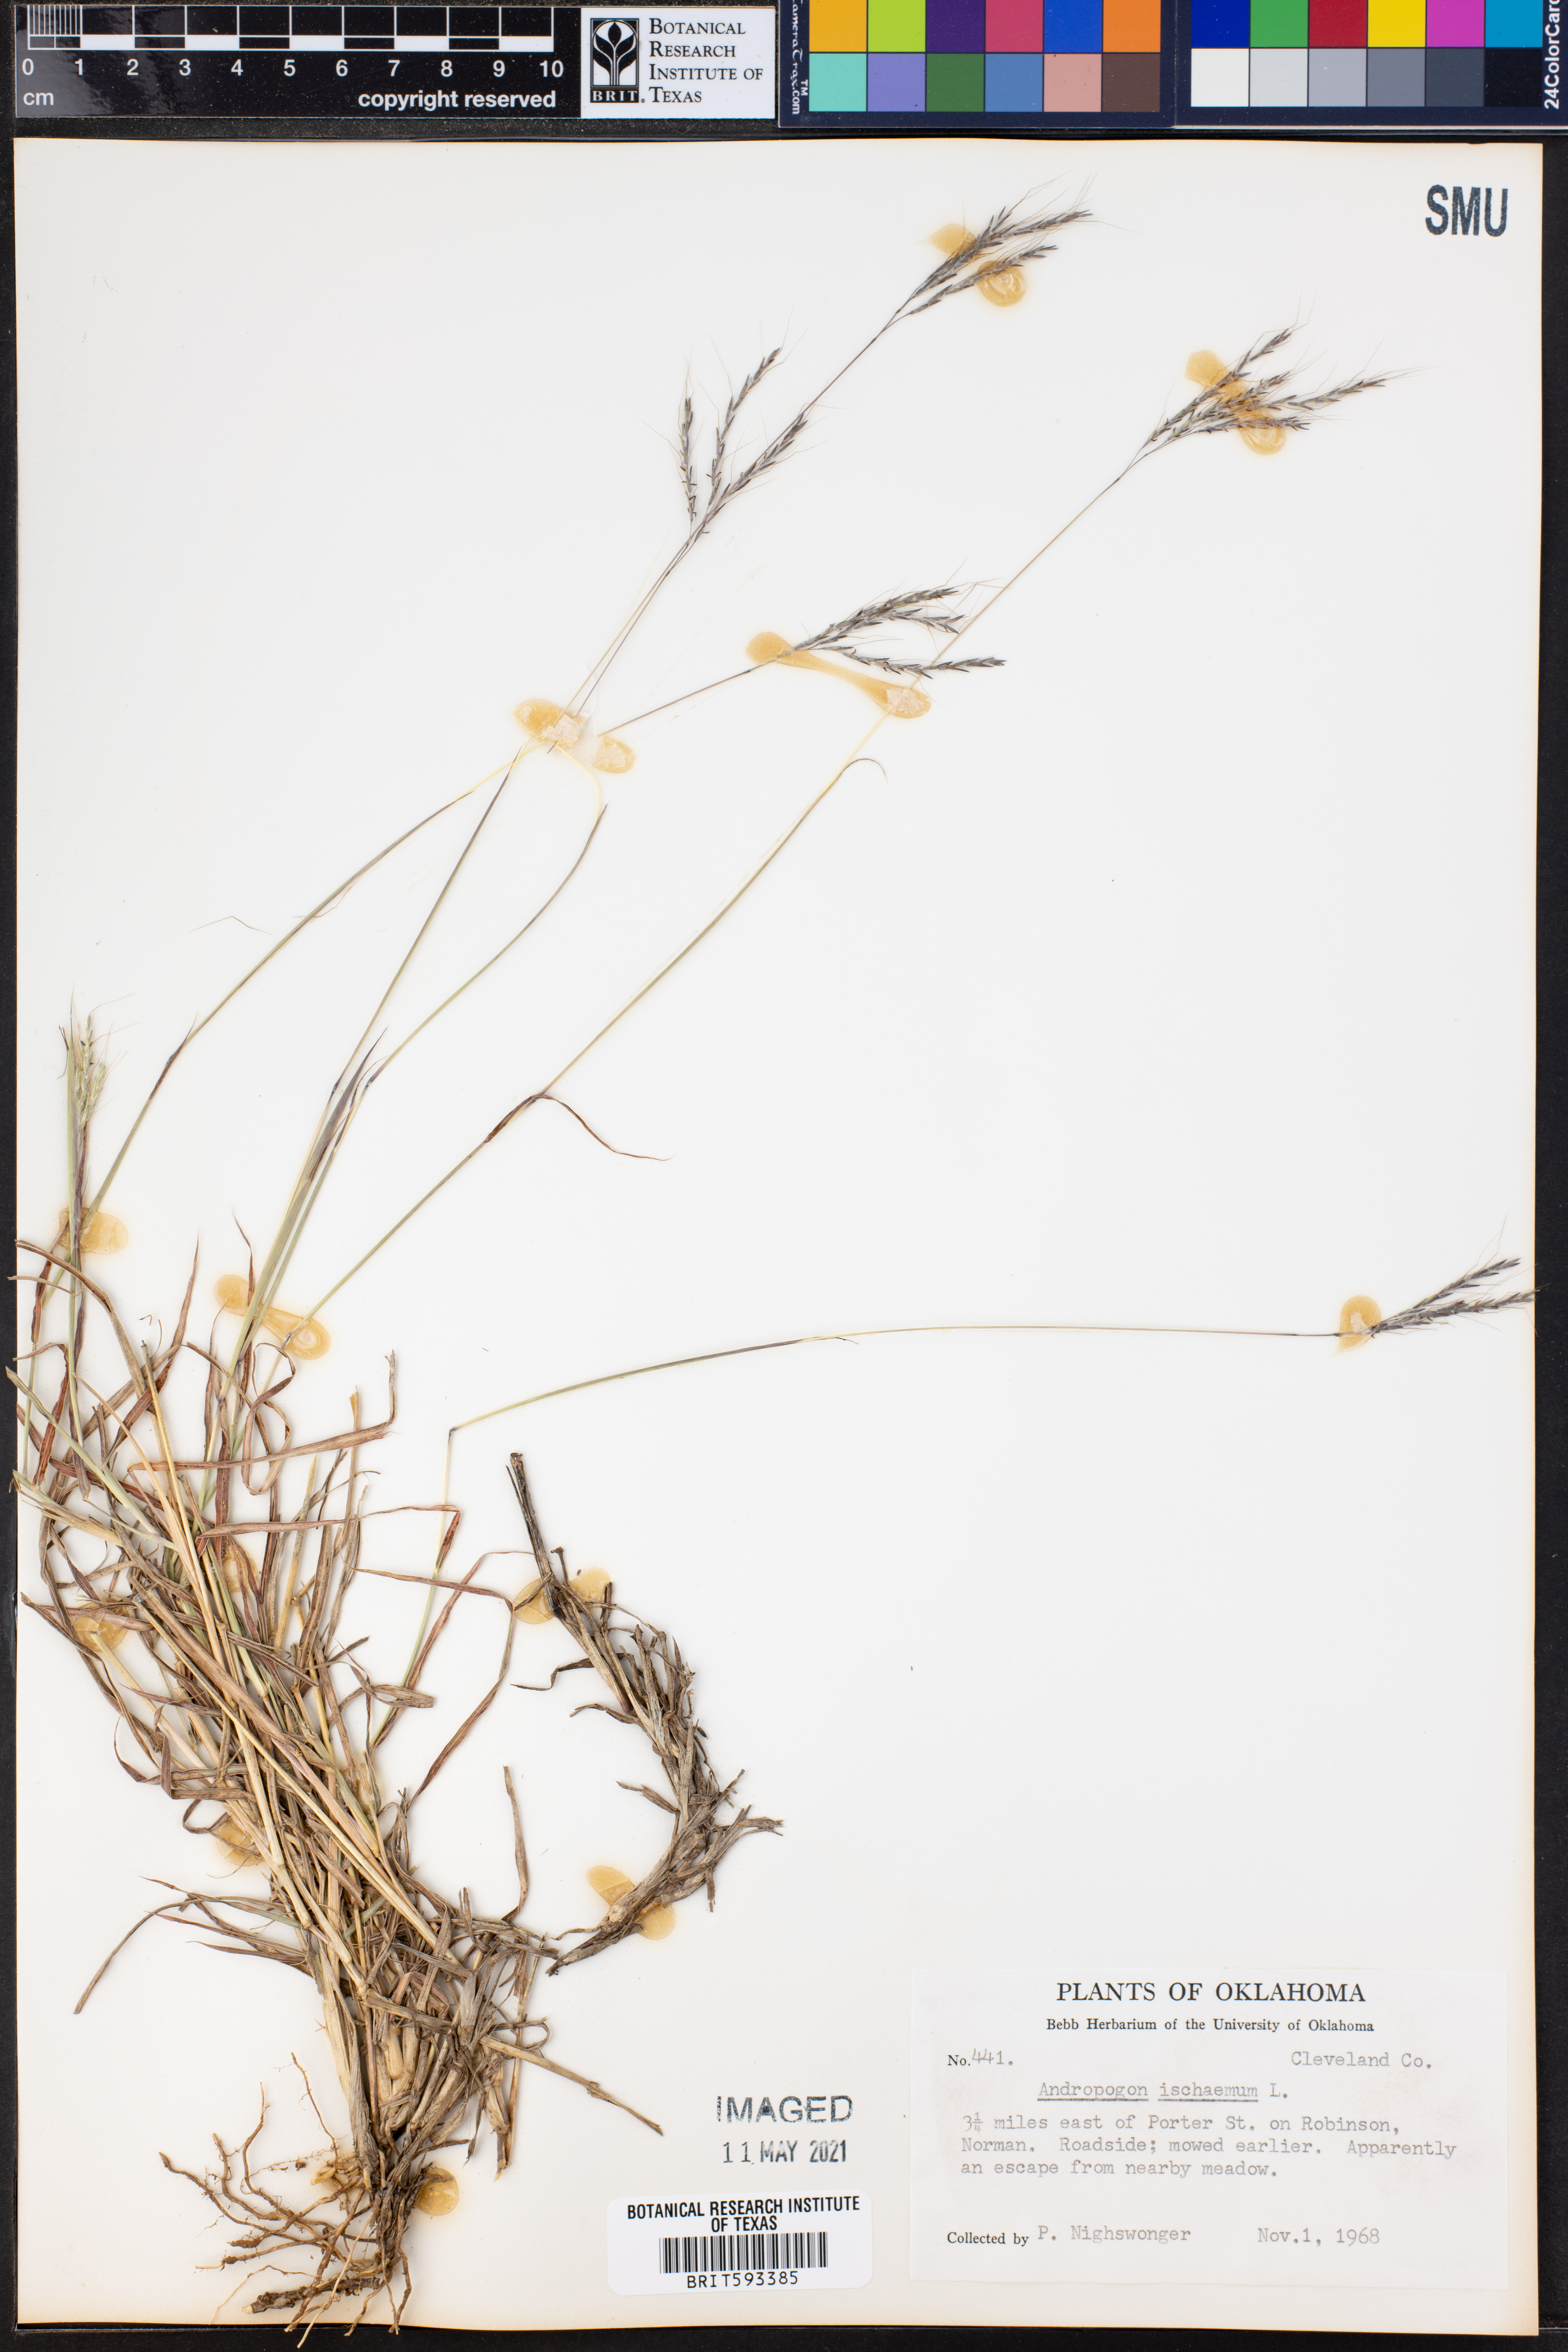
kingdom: Plantae
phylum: Tracheophyta
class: Liliopsida
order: Poales
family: Poaceae
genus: Andropogon
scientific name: Andropogon ischaemum
